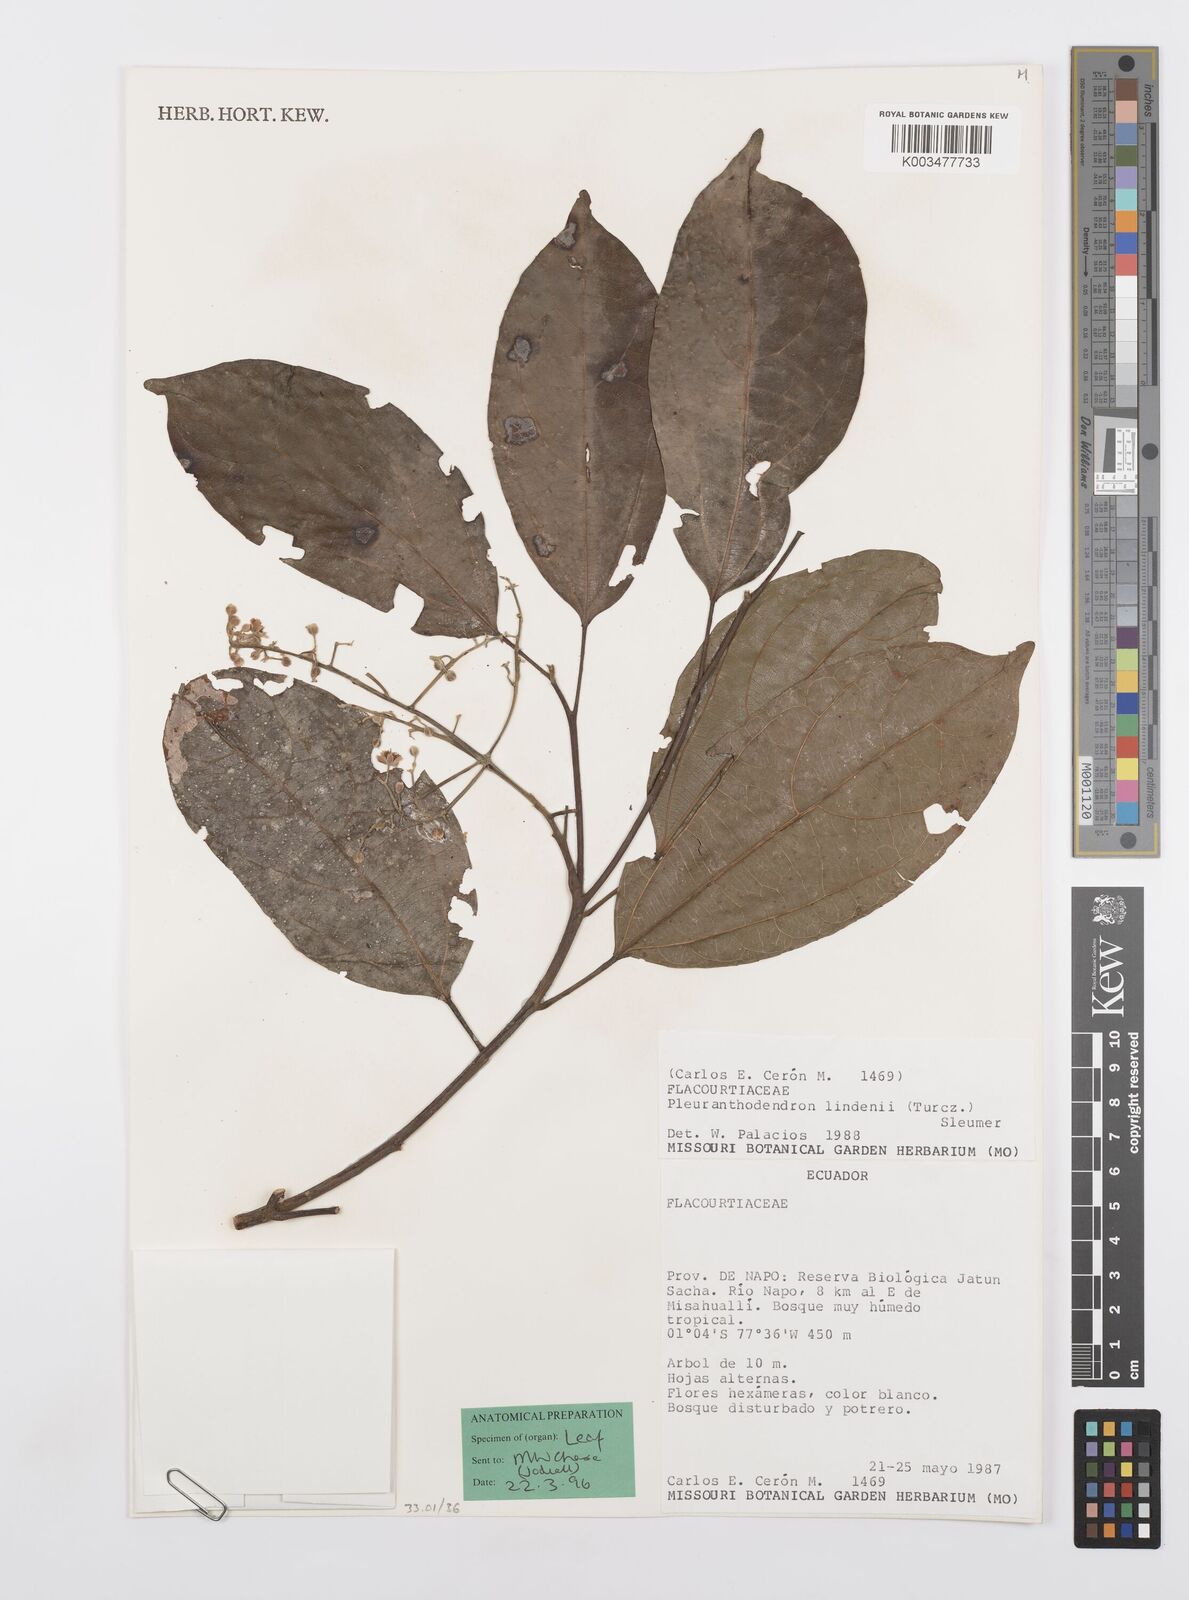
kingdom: Plantae
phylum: Tracheophyta
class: Magnoliopsida
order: Malpighiales
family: Salicaceae
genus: Pleuranthodendron
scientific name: Pleuranthodendron lindenii
